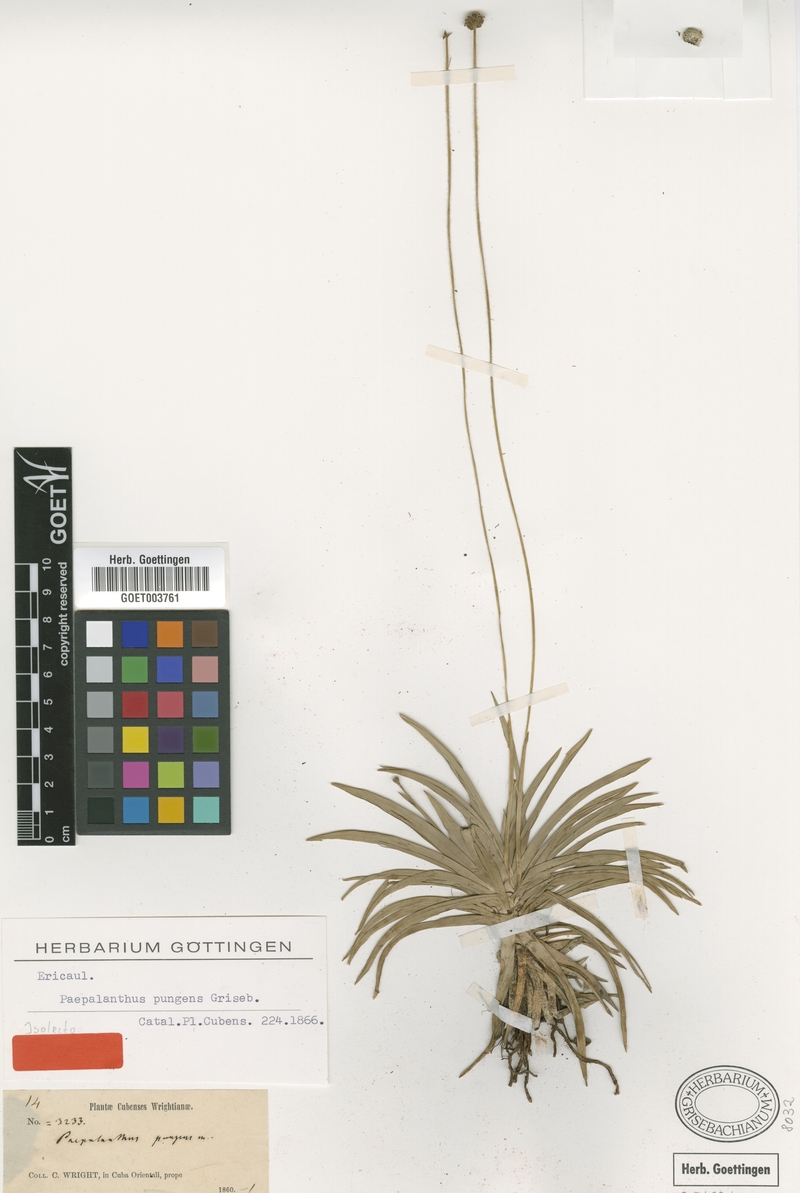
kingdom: Plantae
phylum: Tracheophyta
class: Liliopsida
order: Poales
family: Eriocaulaceae
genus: Paepalanthus
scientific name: Paepalanthus pungens
